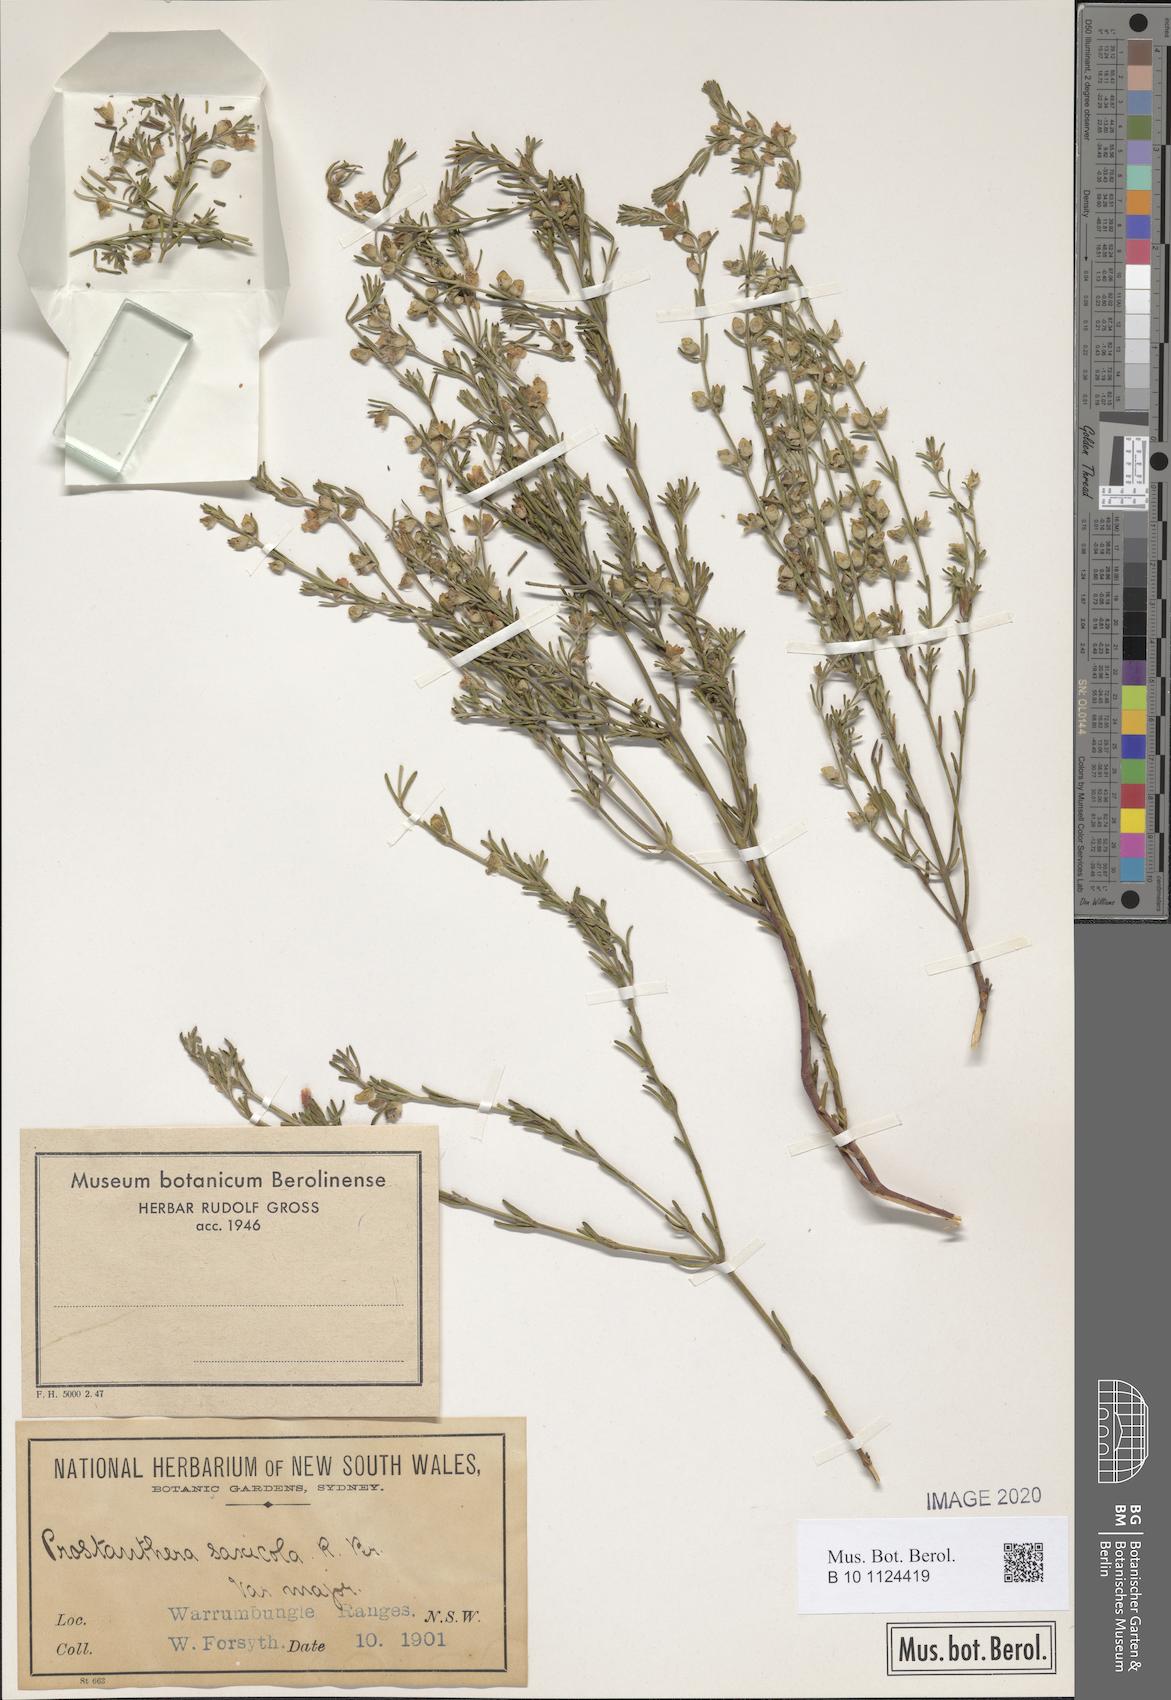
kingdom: Plantae
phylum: Tracheophyta
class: Magnoliopsida
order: Lamiales
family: Lamiaceae
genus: Prostanthera
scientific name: Prostanthera saxicola
